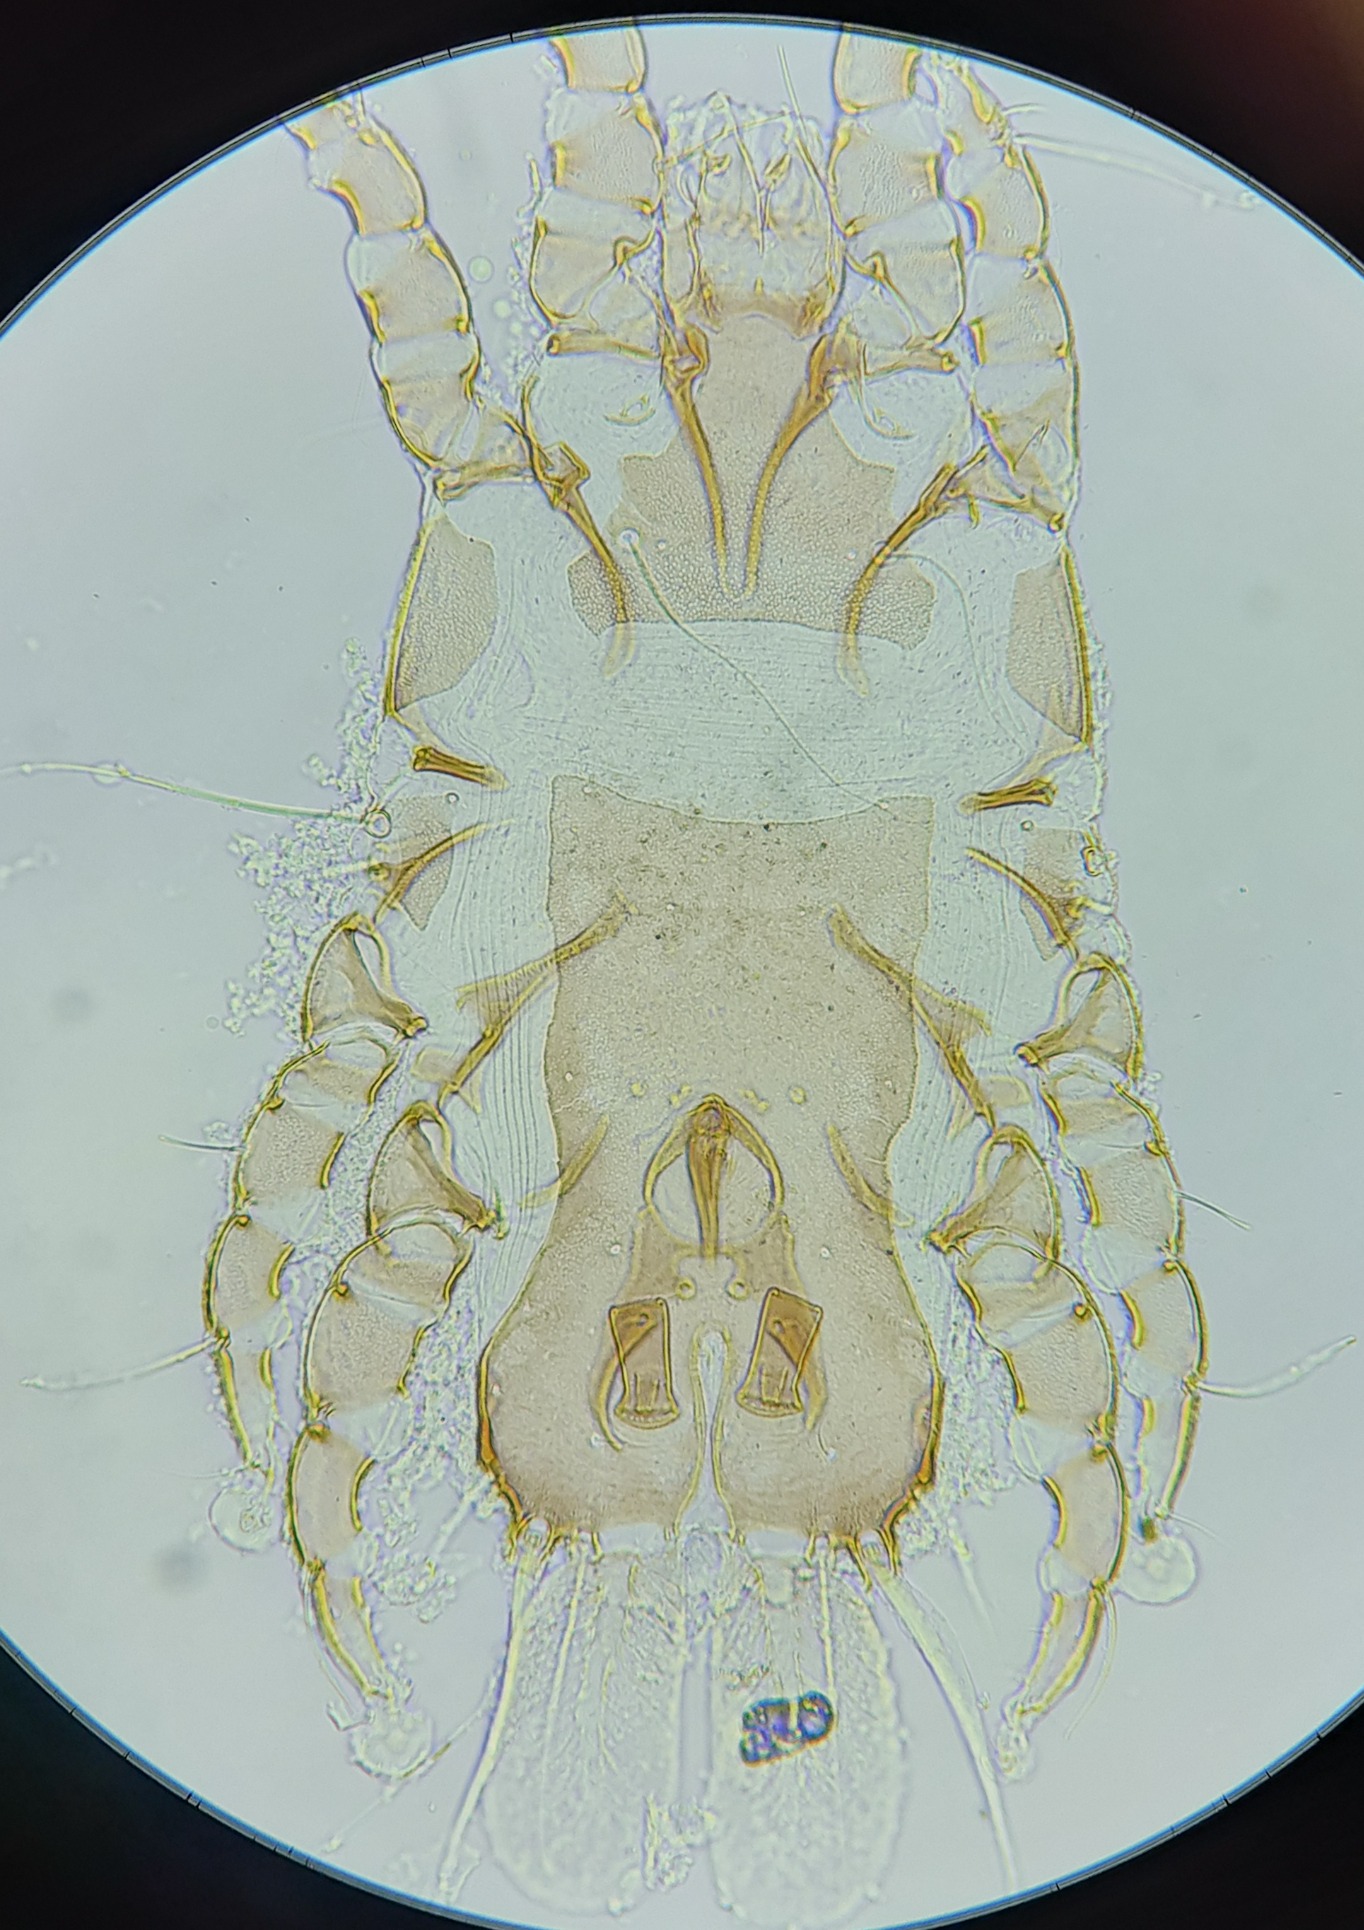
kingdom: Animalia
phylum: Arthropoda
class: Arachnida
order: Sarcoptiformes
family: Proctophyllodidae
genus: Proctophyllodes
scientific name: Proctophyllodes pinnatus
